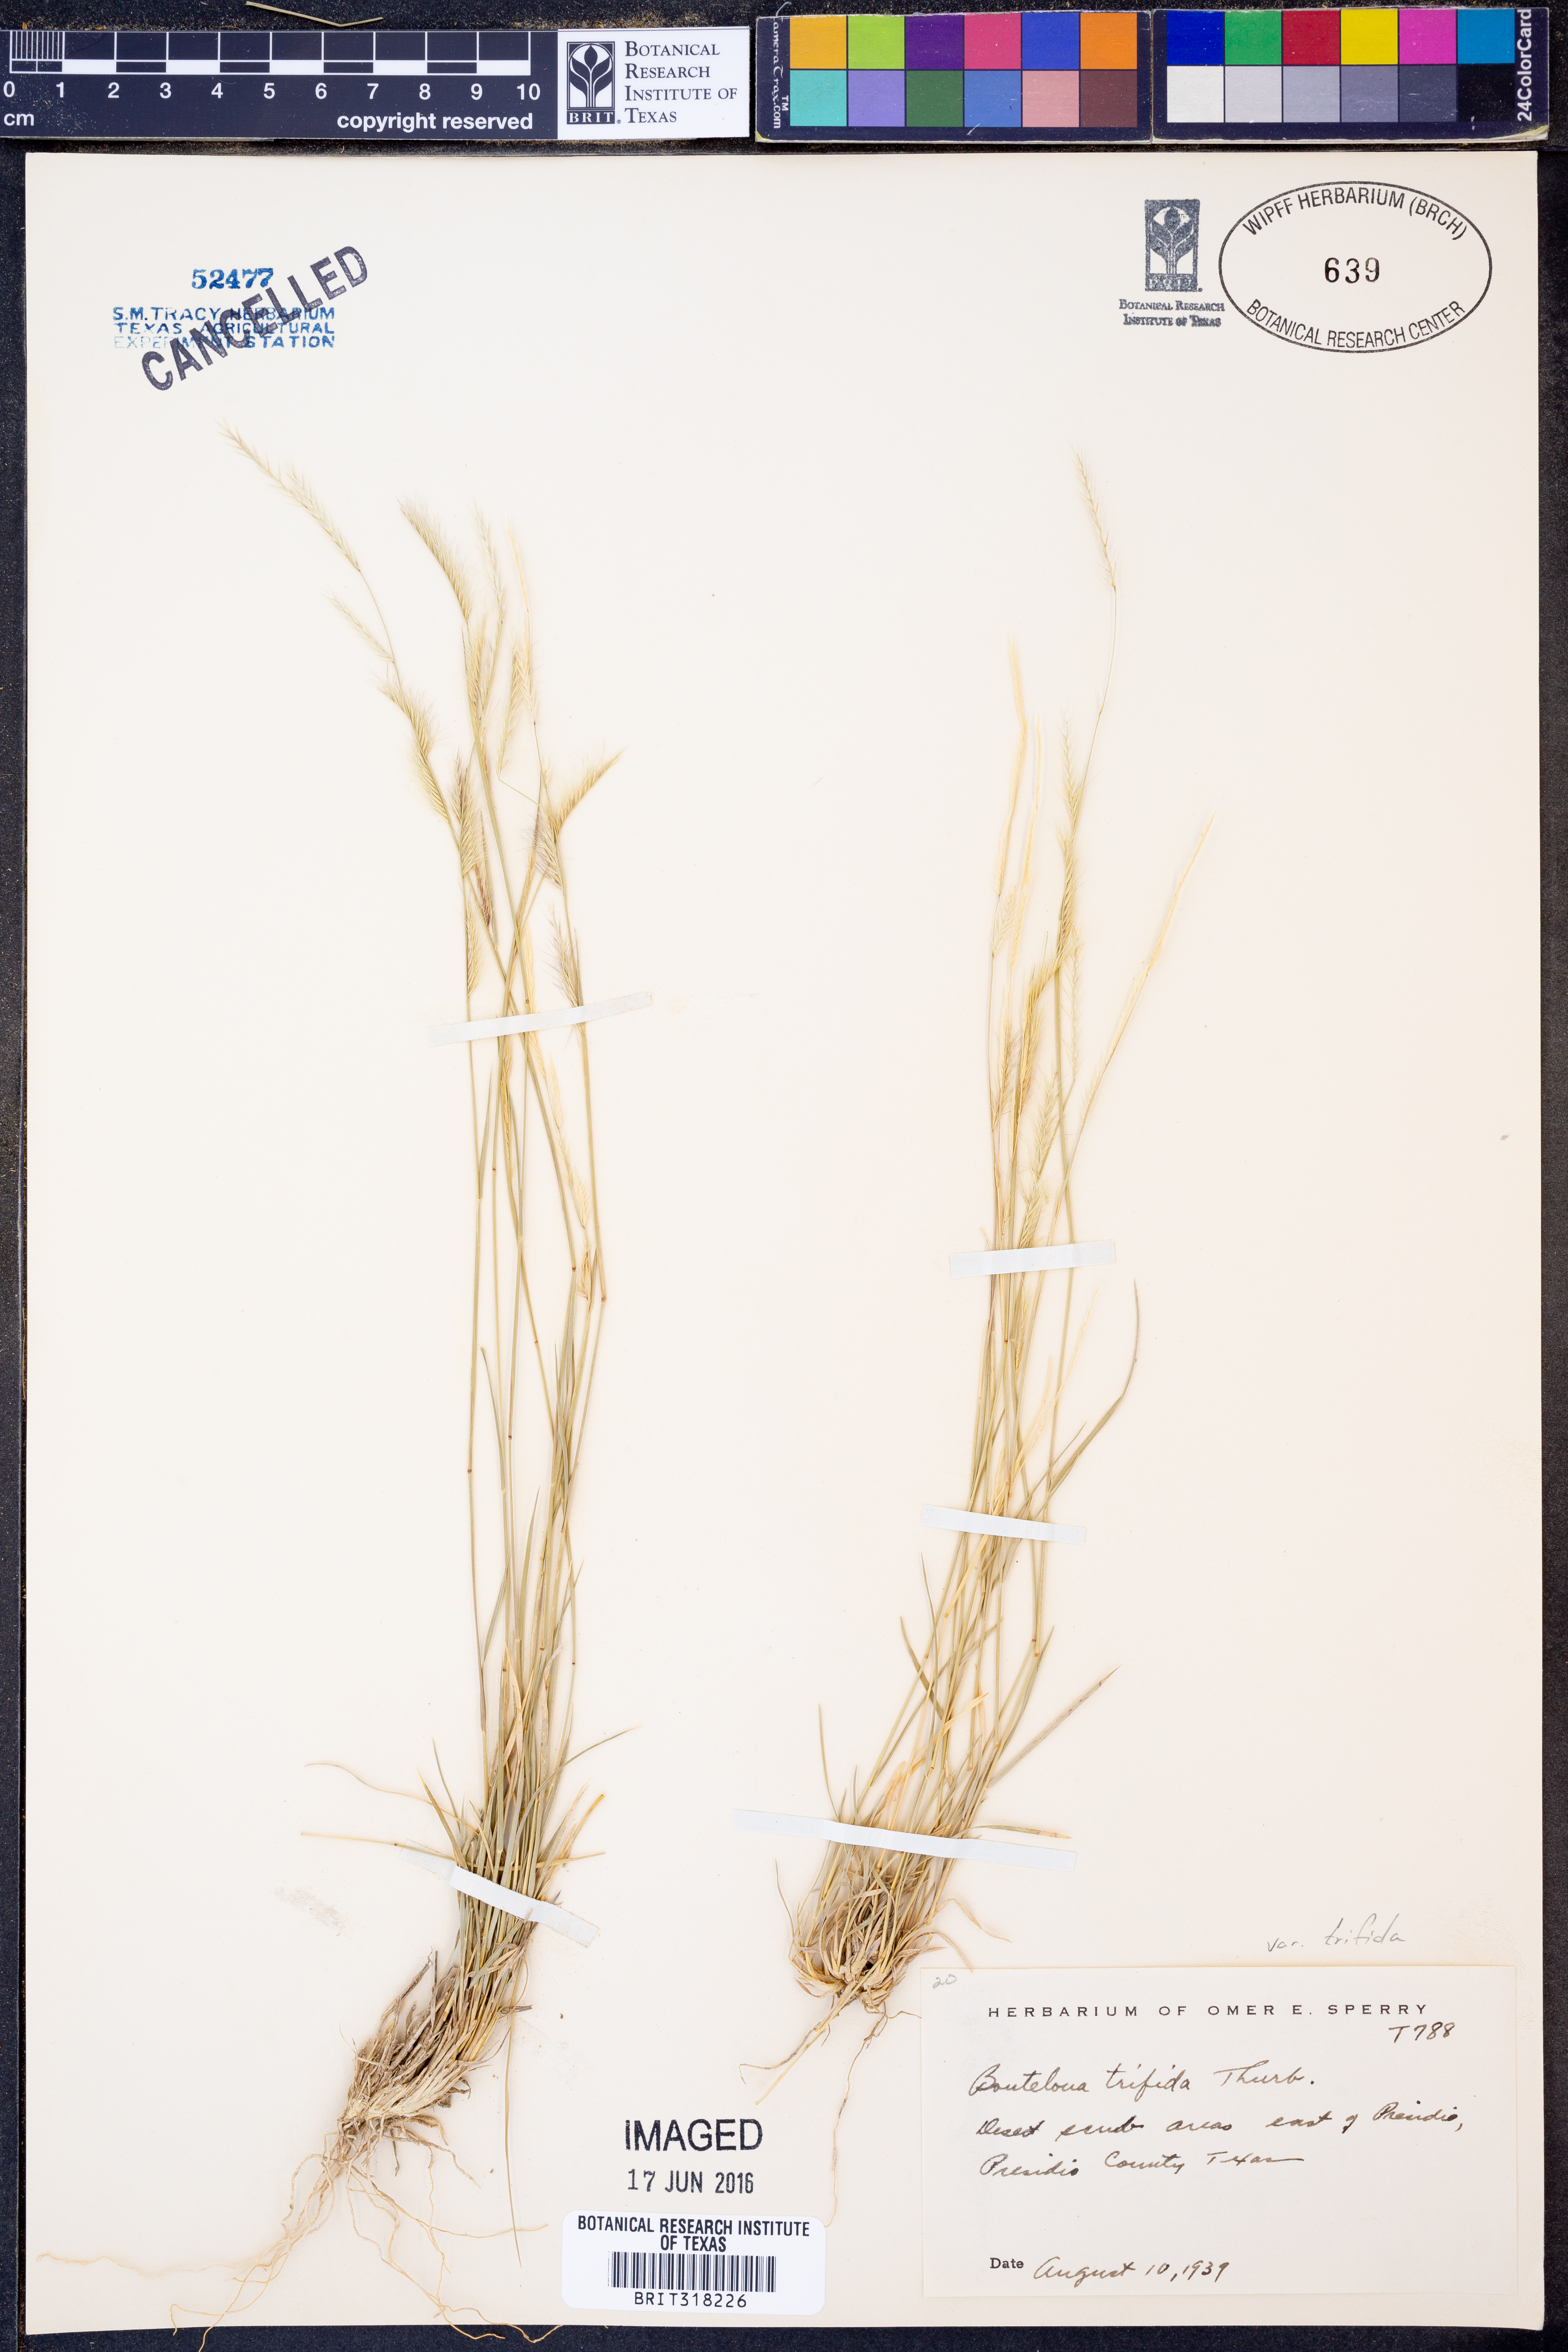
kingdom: Plantae
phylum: Tracheophyta
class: Liliopsida
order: Poales
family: Poaceae
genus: Bouteloua
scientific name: Bouteloua trifida
